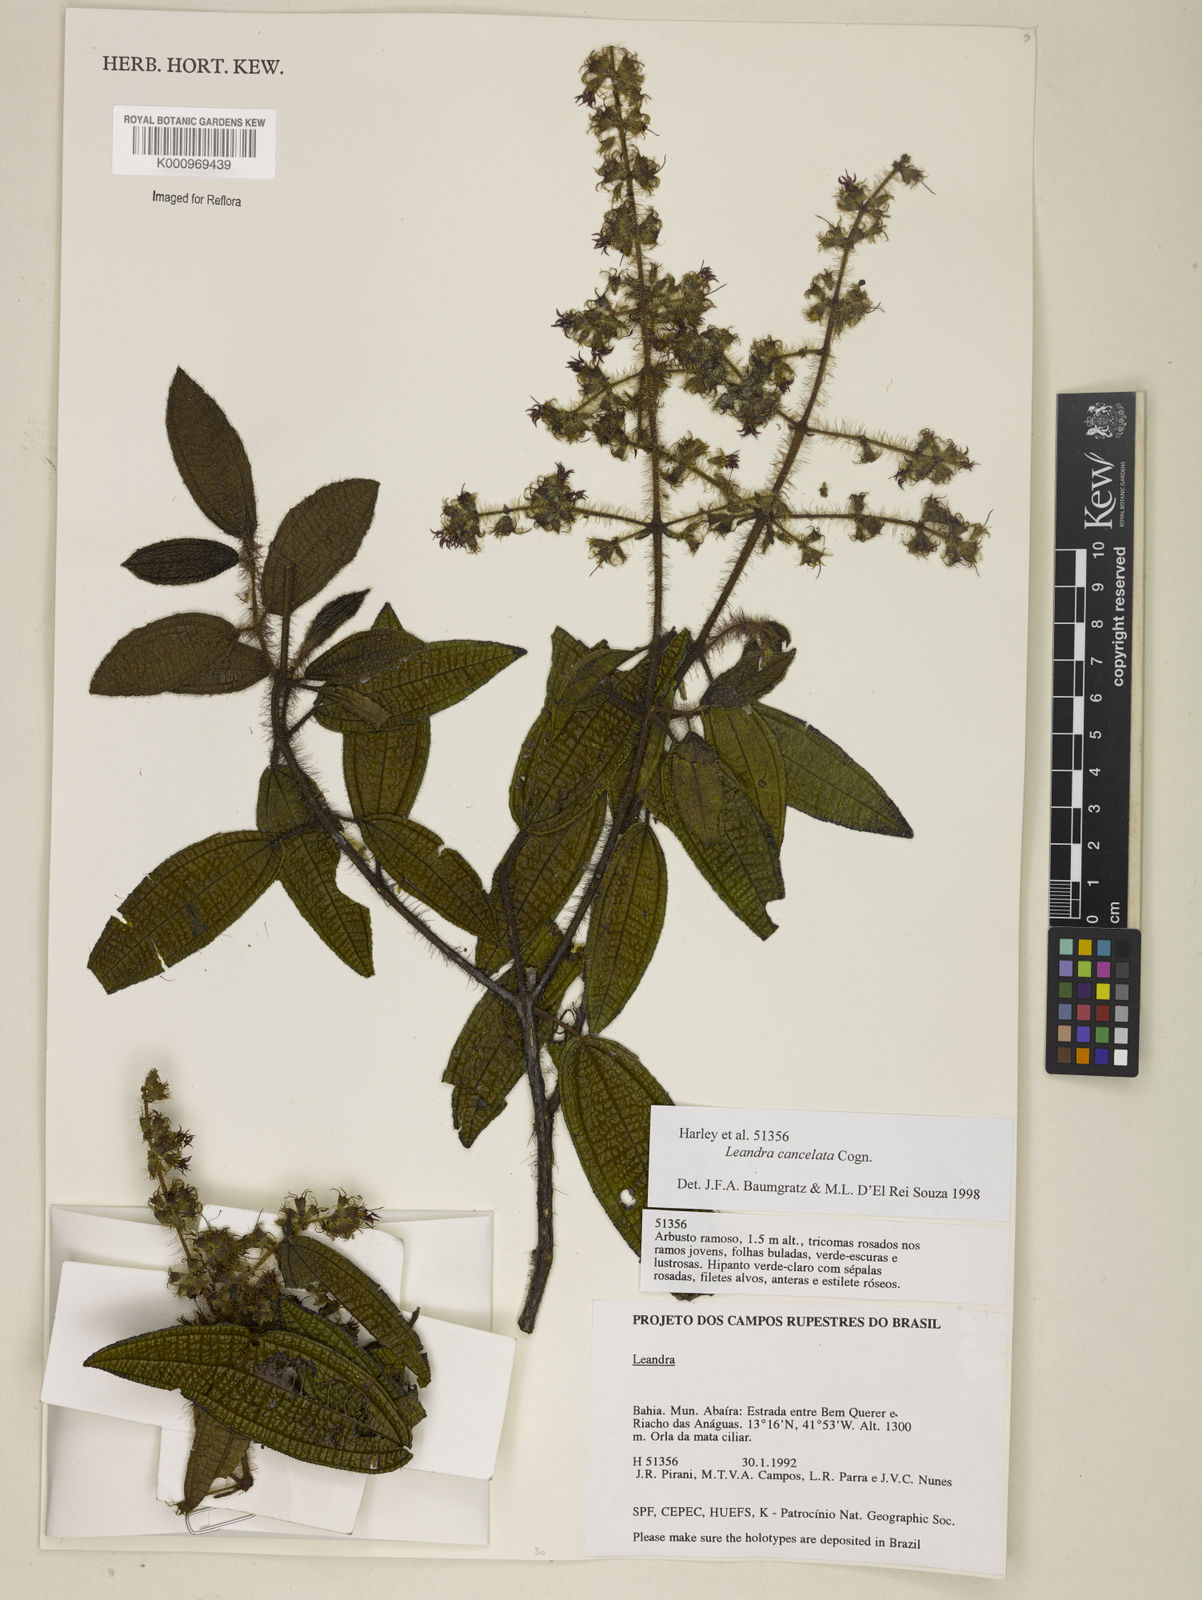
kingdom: Plantae
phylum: Tracheophyta
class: Magnoliopsida
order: Myrtales
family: Melastomataceae
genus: Miconia
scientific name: Miconia cancellata
